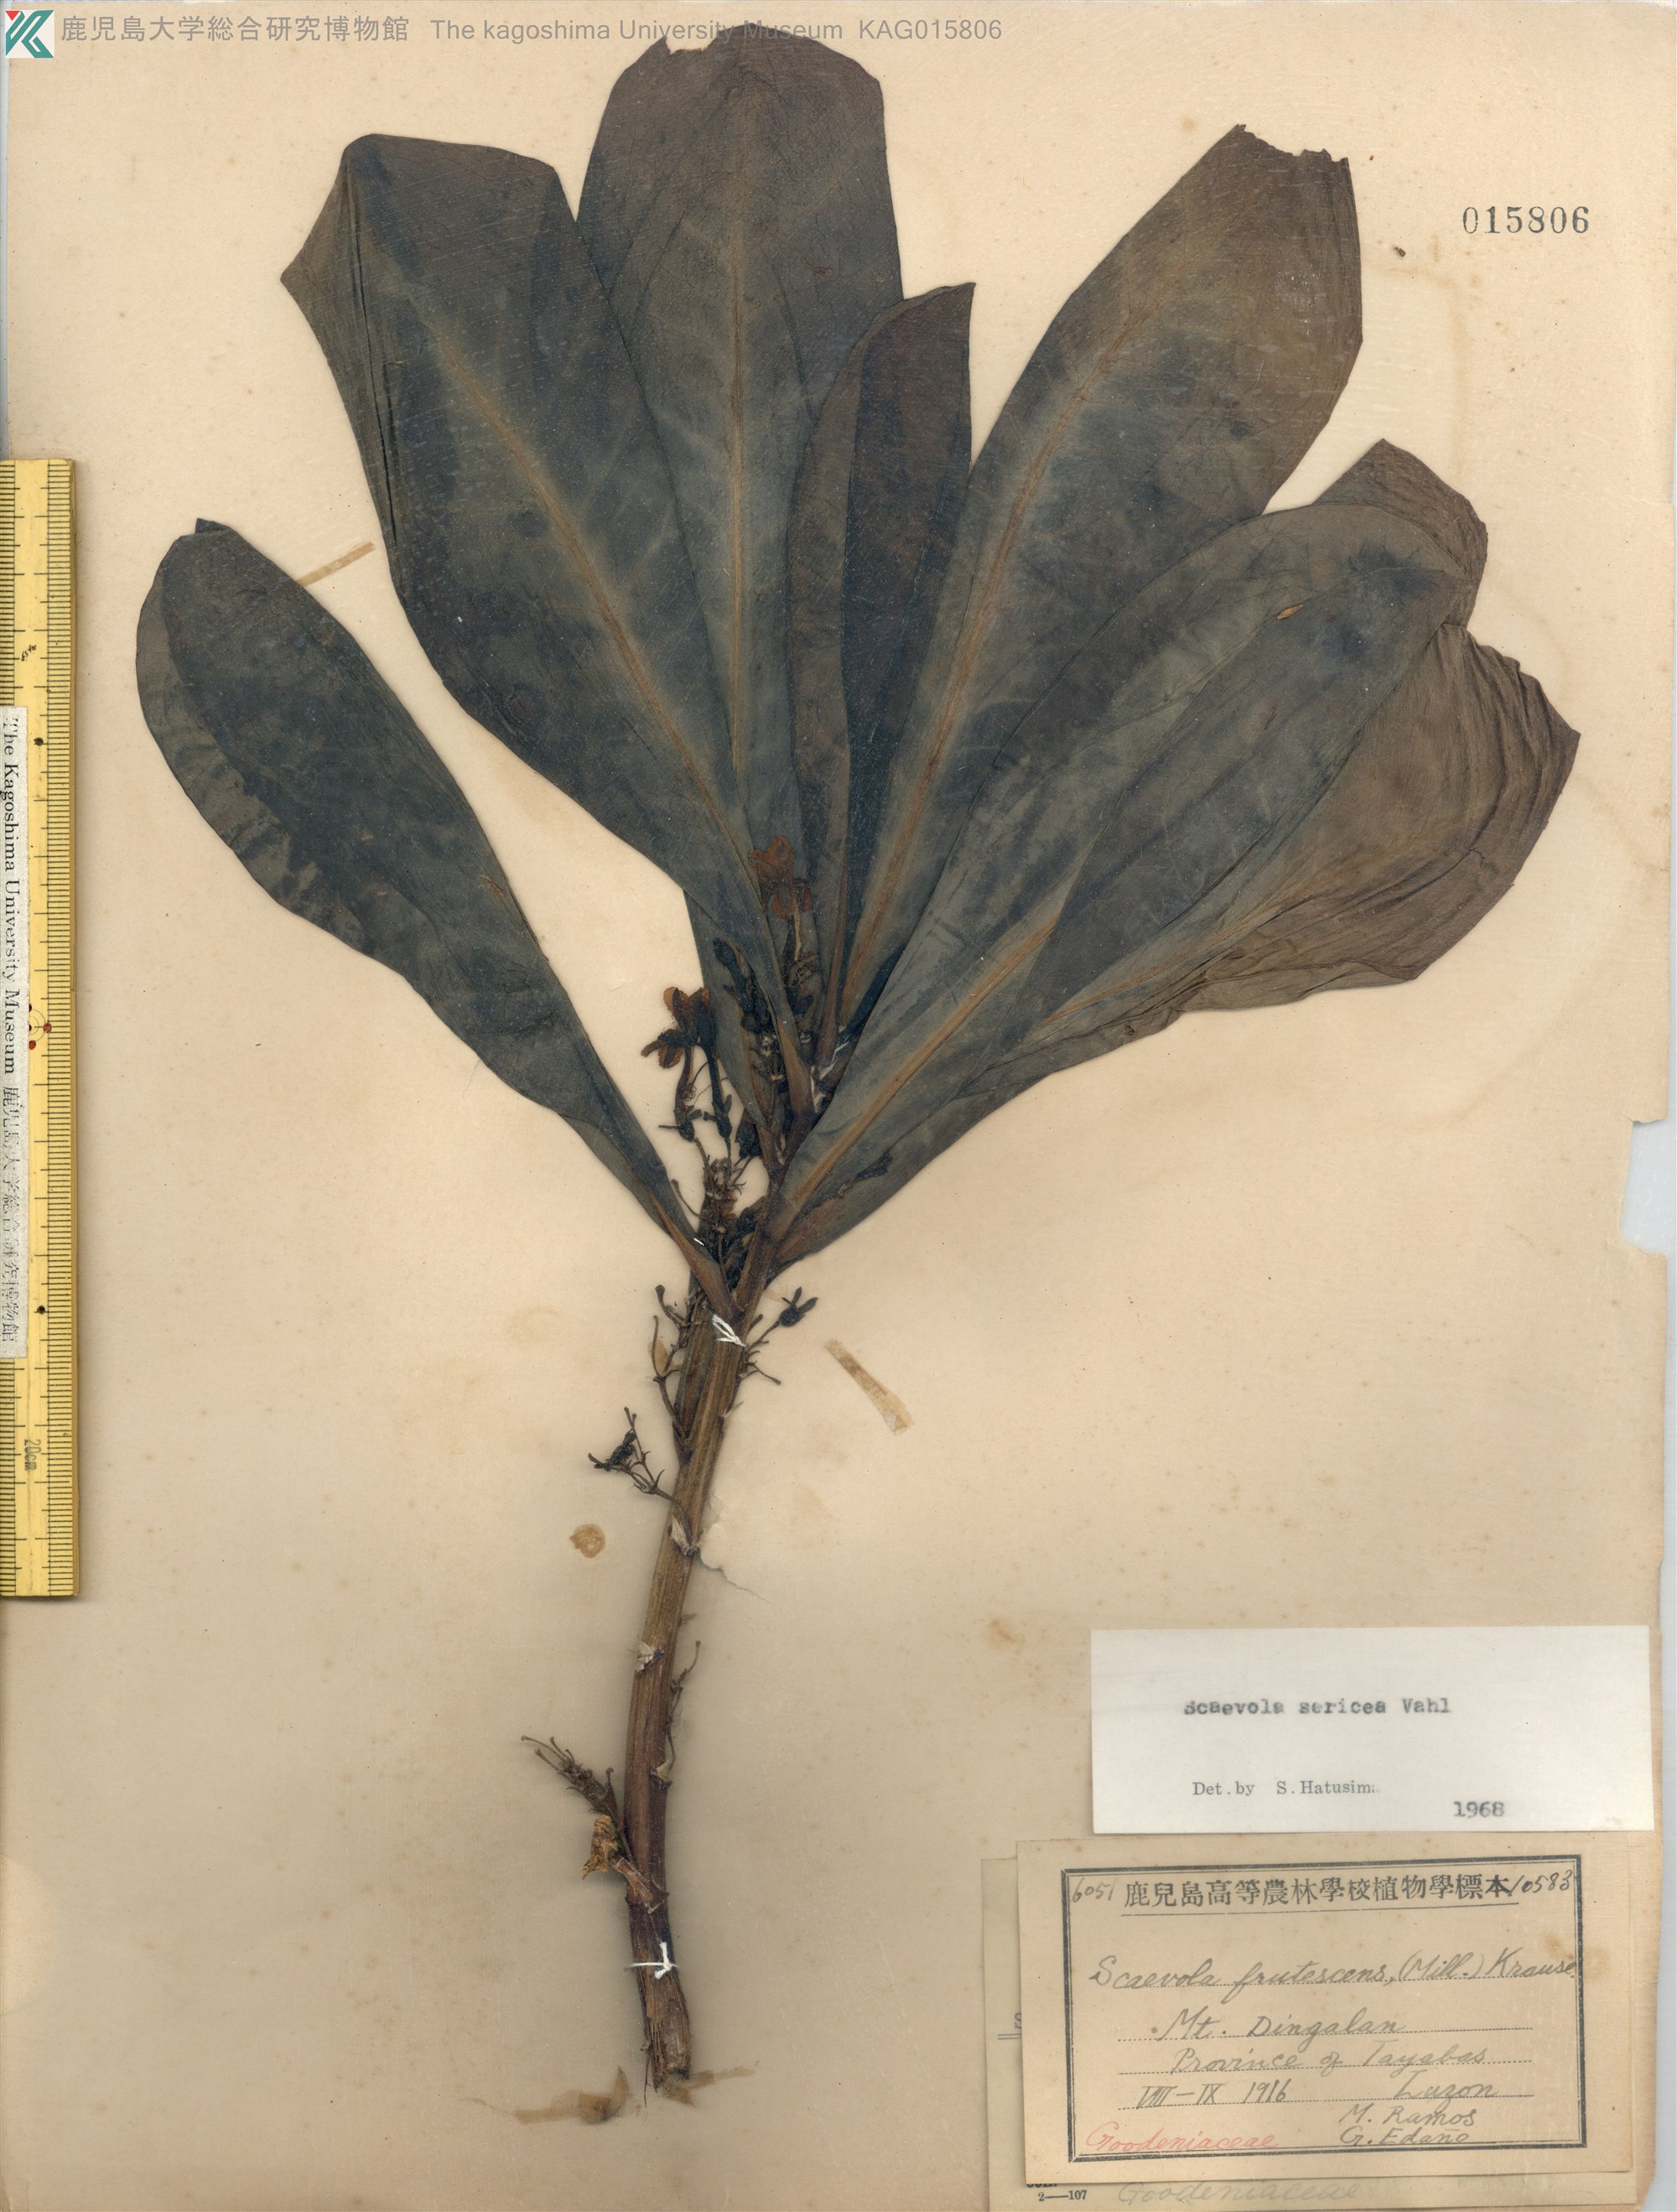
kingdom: Plantae
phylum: Tracheophyta
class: Magnoliopsida
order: Asterales
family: Goodeniaceae
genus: Scaevola
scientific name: Scaevola taccada
